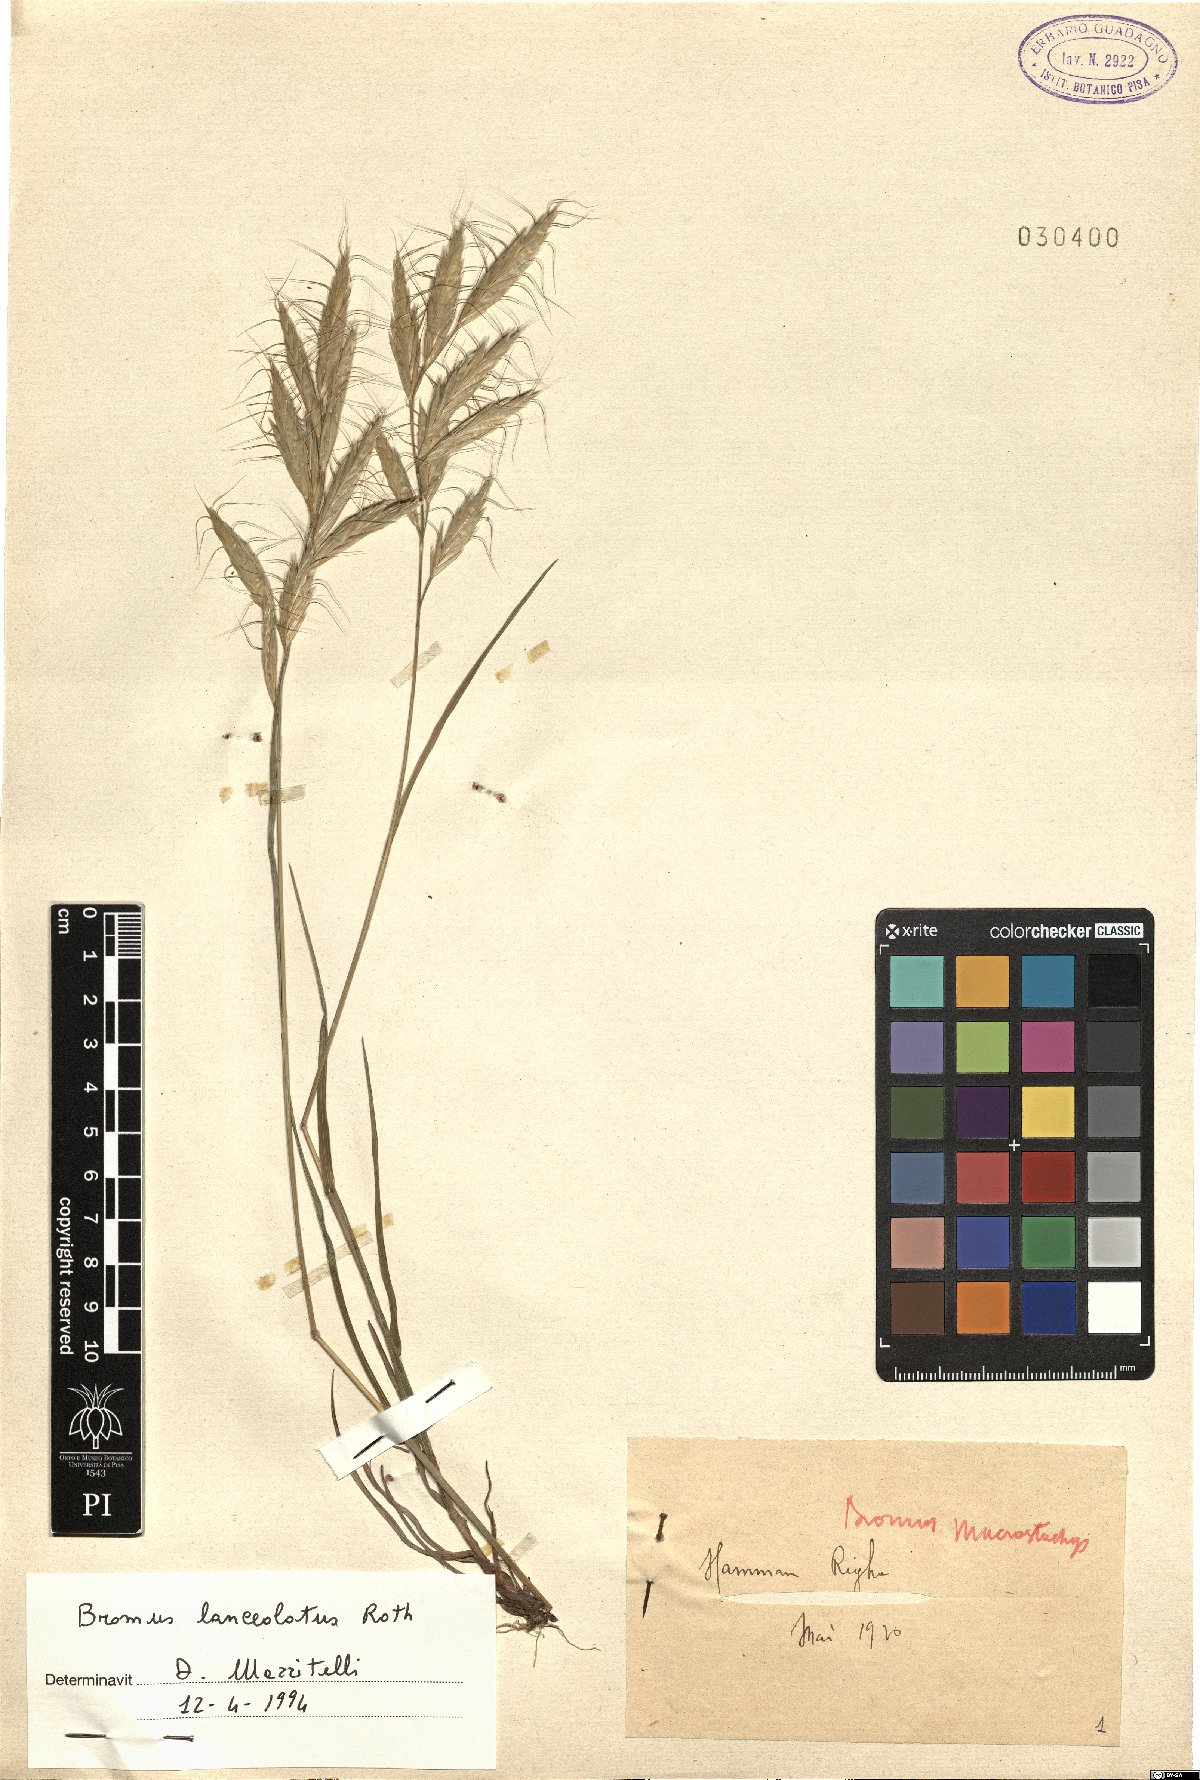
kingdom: Plantae
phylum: Tracheophyta
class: Liliopsida
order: Poales
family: Poaceae
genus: Bromus
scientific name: Bromus lanceolatus
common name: Mediterranean brome
